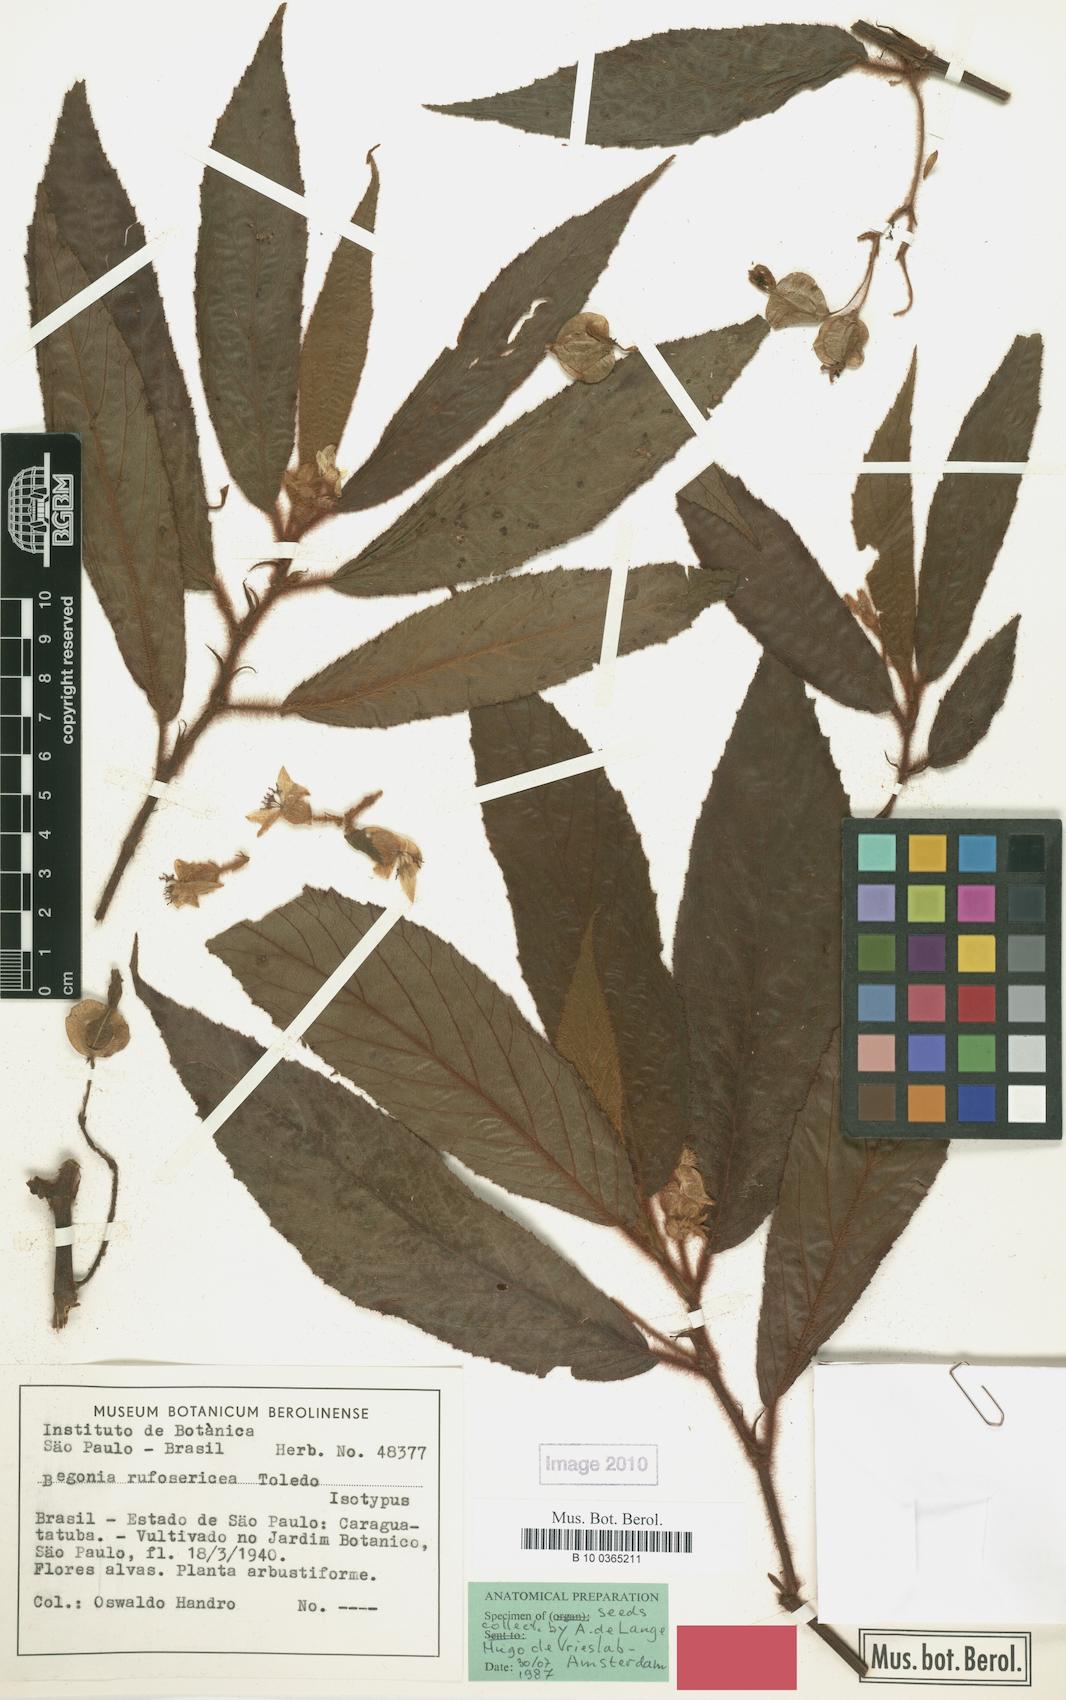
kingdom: Plantae
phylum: Tracheophyta
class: Magnoliopsida
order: Cucurbitales
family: Begoniaceae
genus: Begonia
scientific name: Begonia rufosericea
